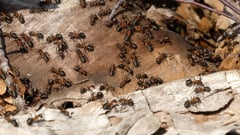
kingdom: Animalia
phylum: Arthropoda
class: Insecta
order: Hymenoptera
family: Formicidae
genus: Formica
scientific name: Formica rufa
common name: Red wood ant
